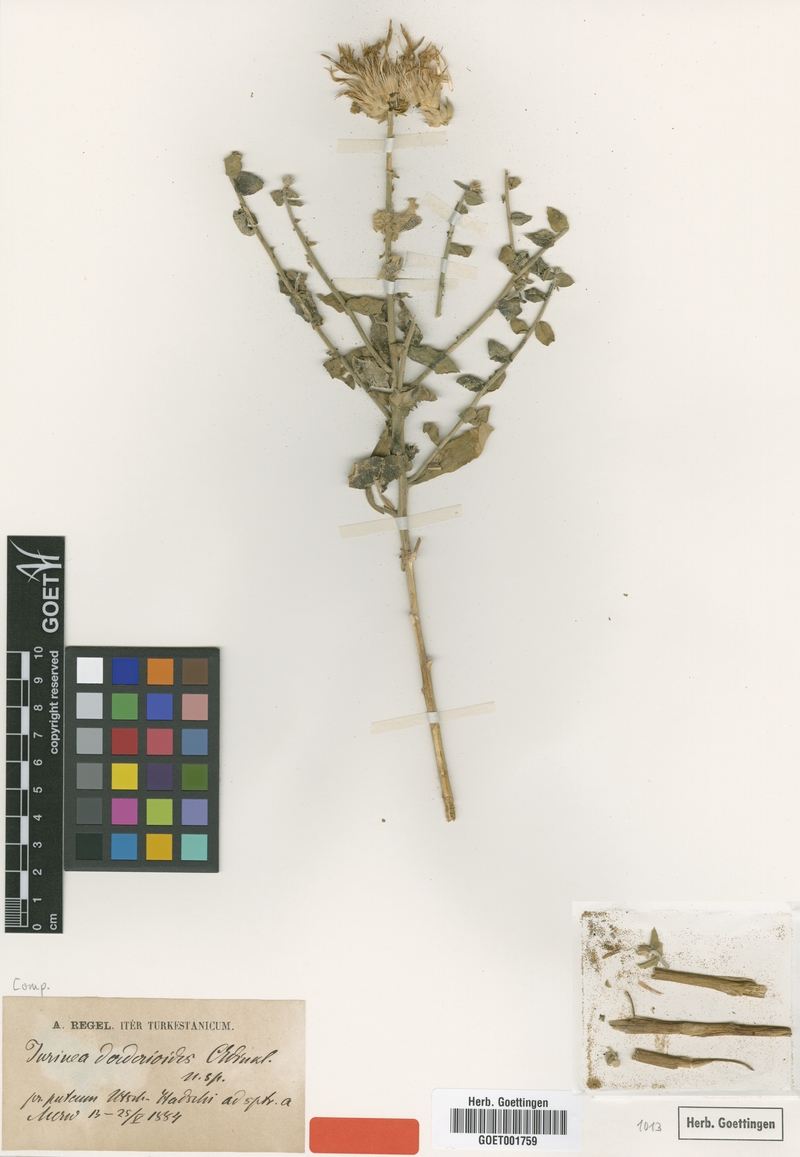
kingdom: Plantae
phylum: Tracheophyta
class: Magnoliopsida
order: Asterales
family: Asteraceae
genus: Jurinea
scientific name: Jurinea derderioides
